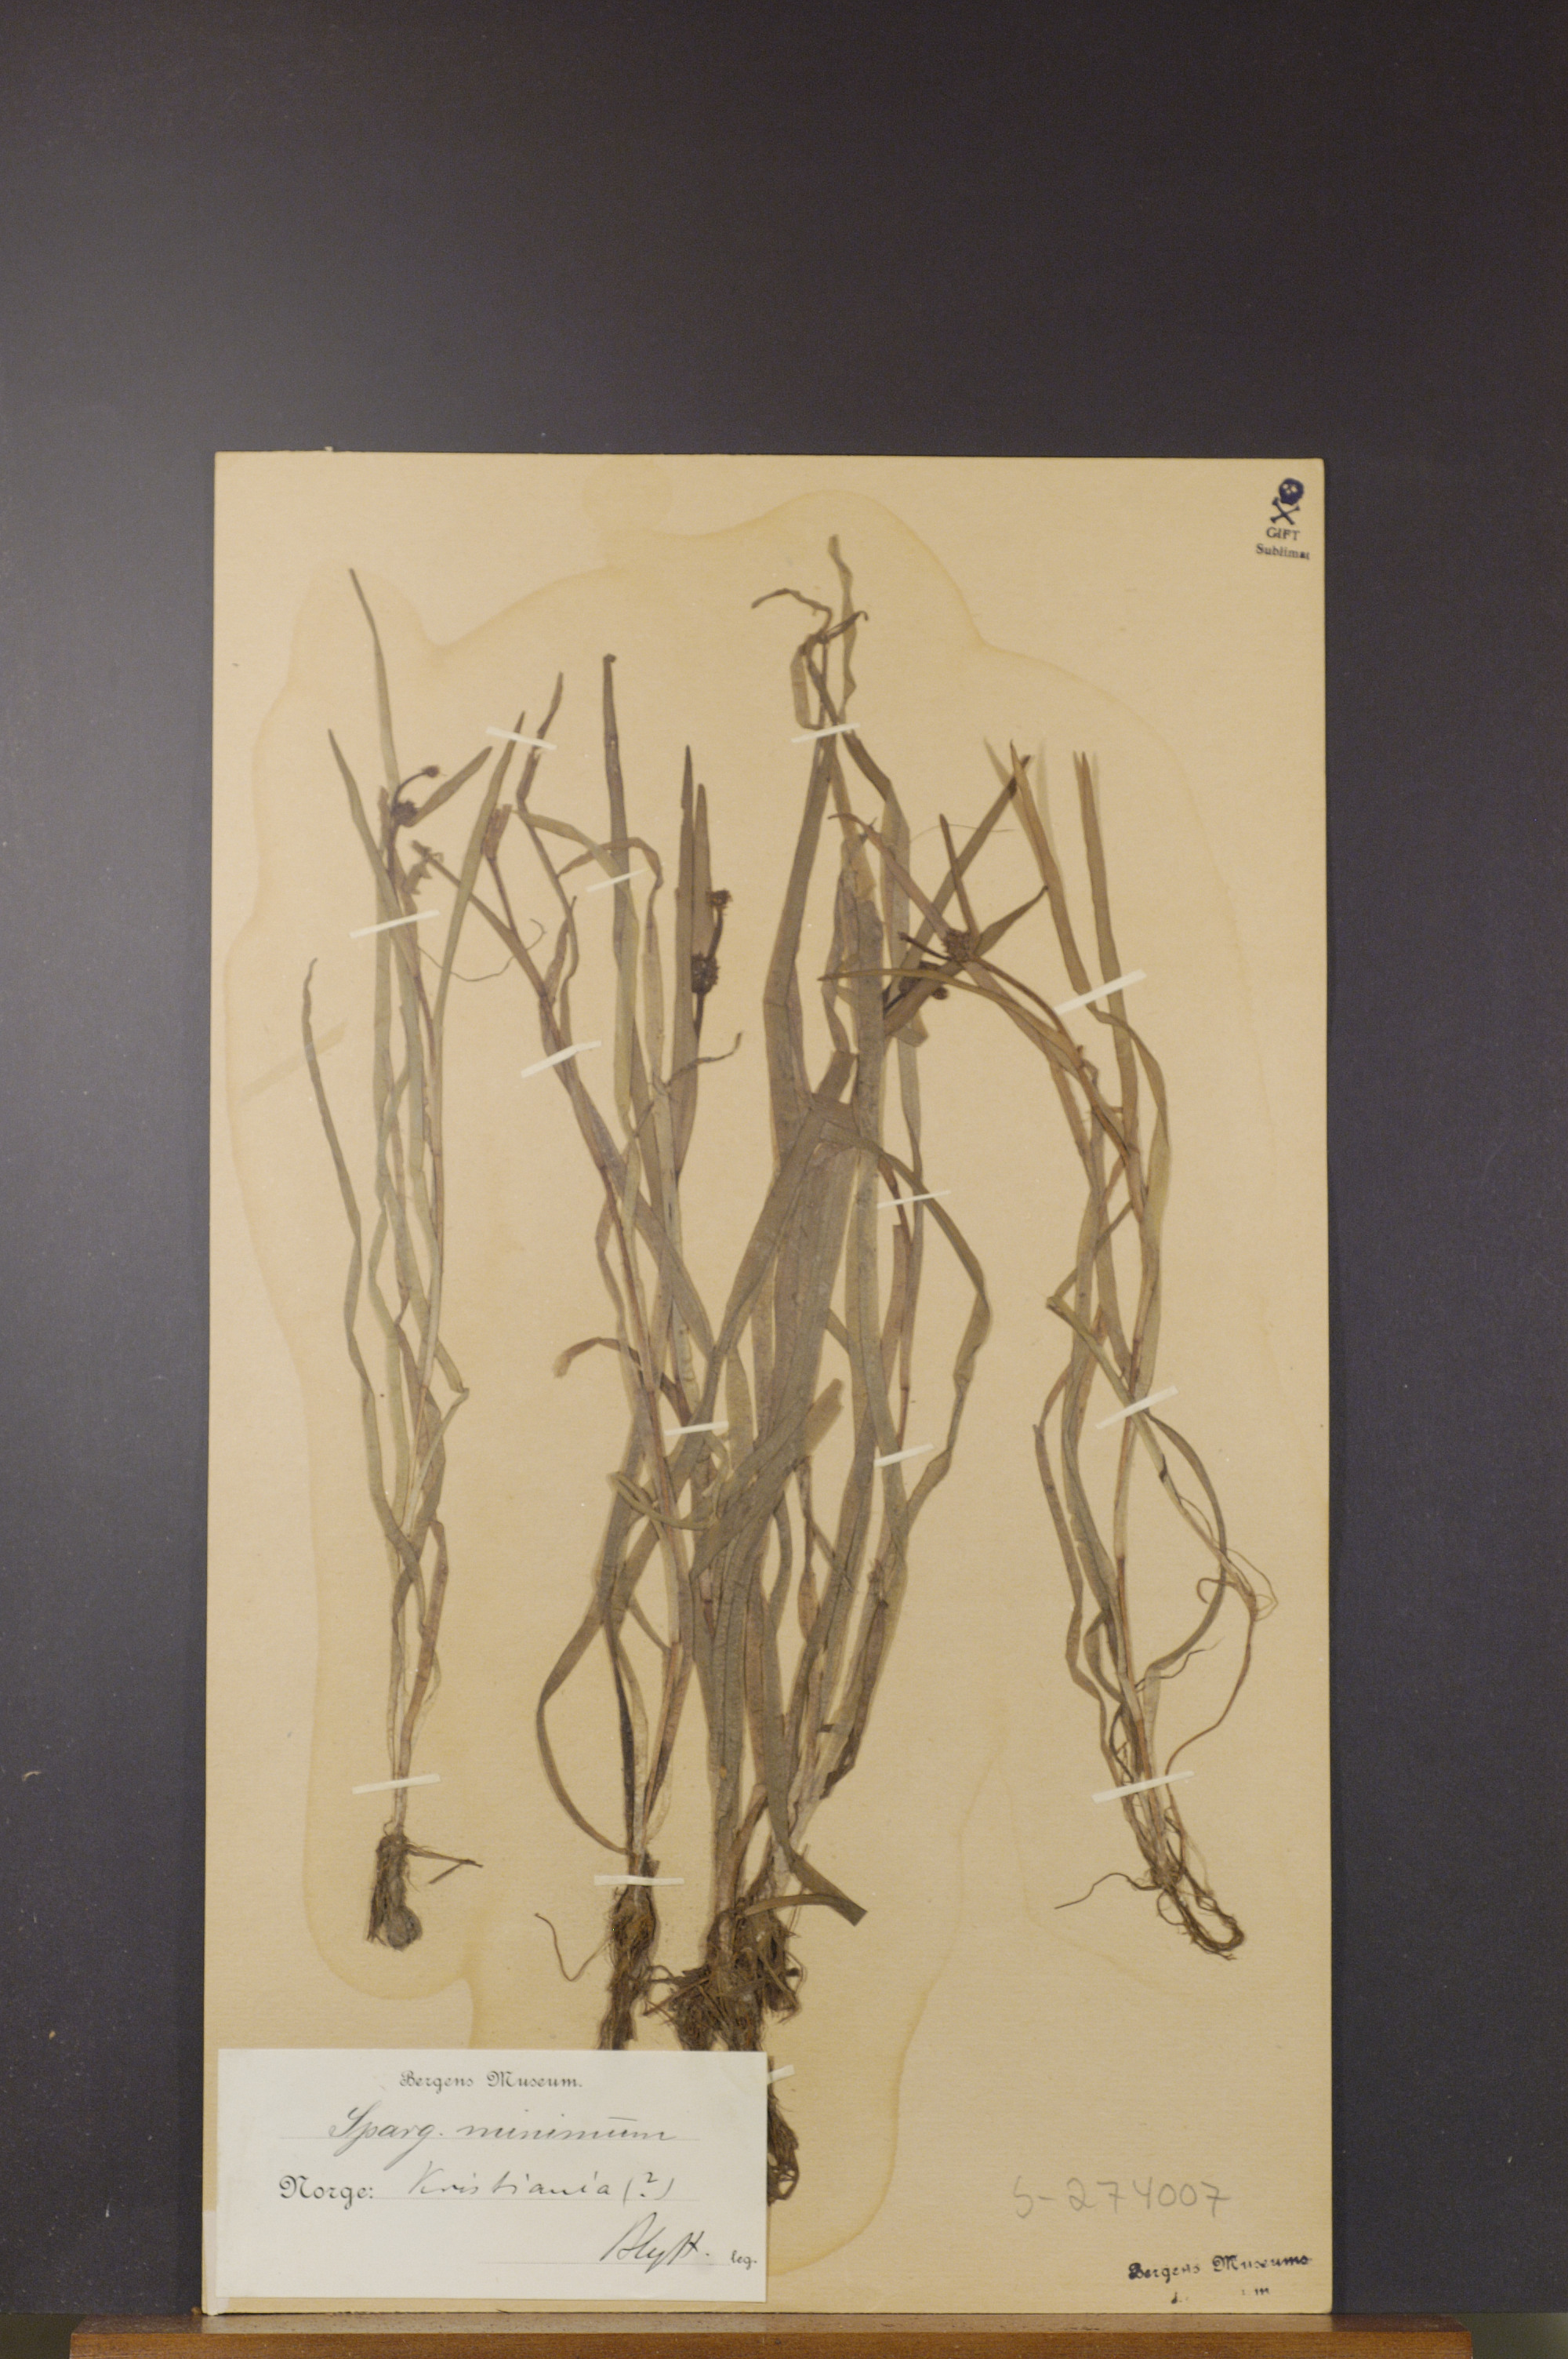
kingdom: Plantae
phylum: Tracheophyta
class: Liliopsida
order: Poales
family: Typhaceae
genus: Sparganium
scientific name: Sparganium natans
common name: Least bur-reed
